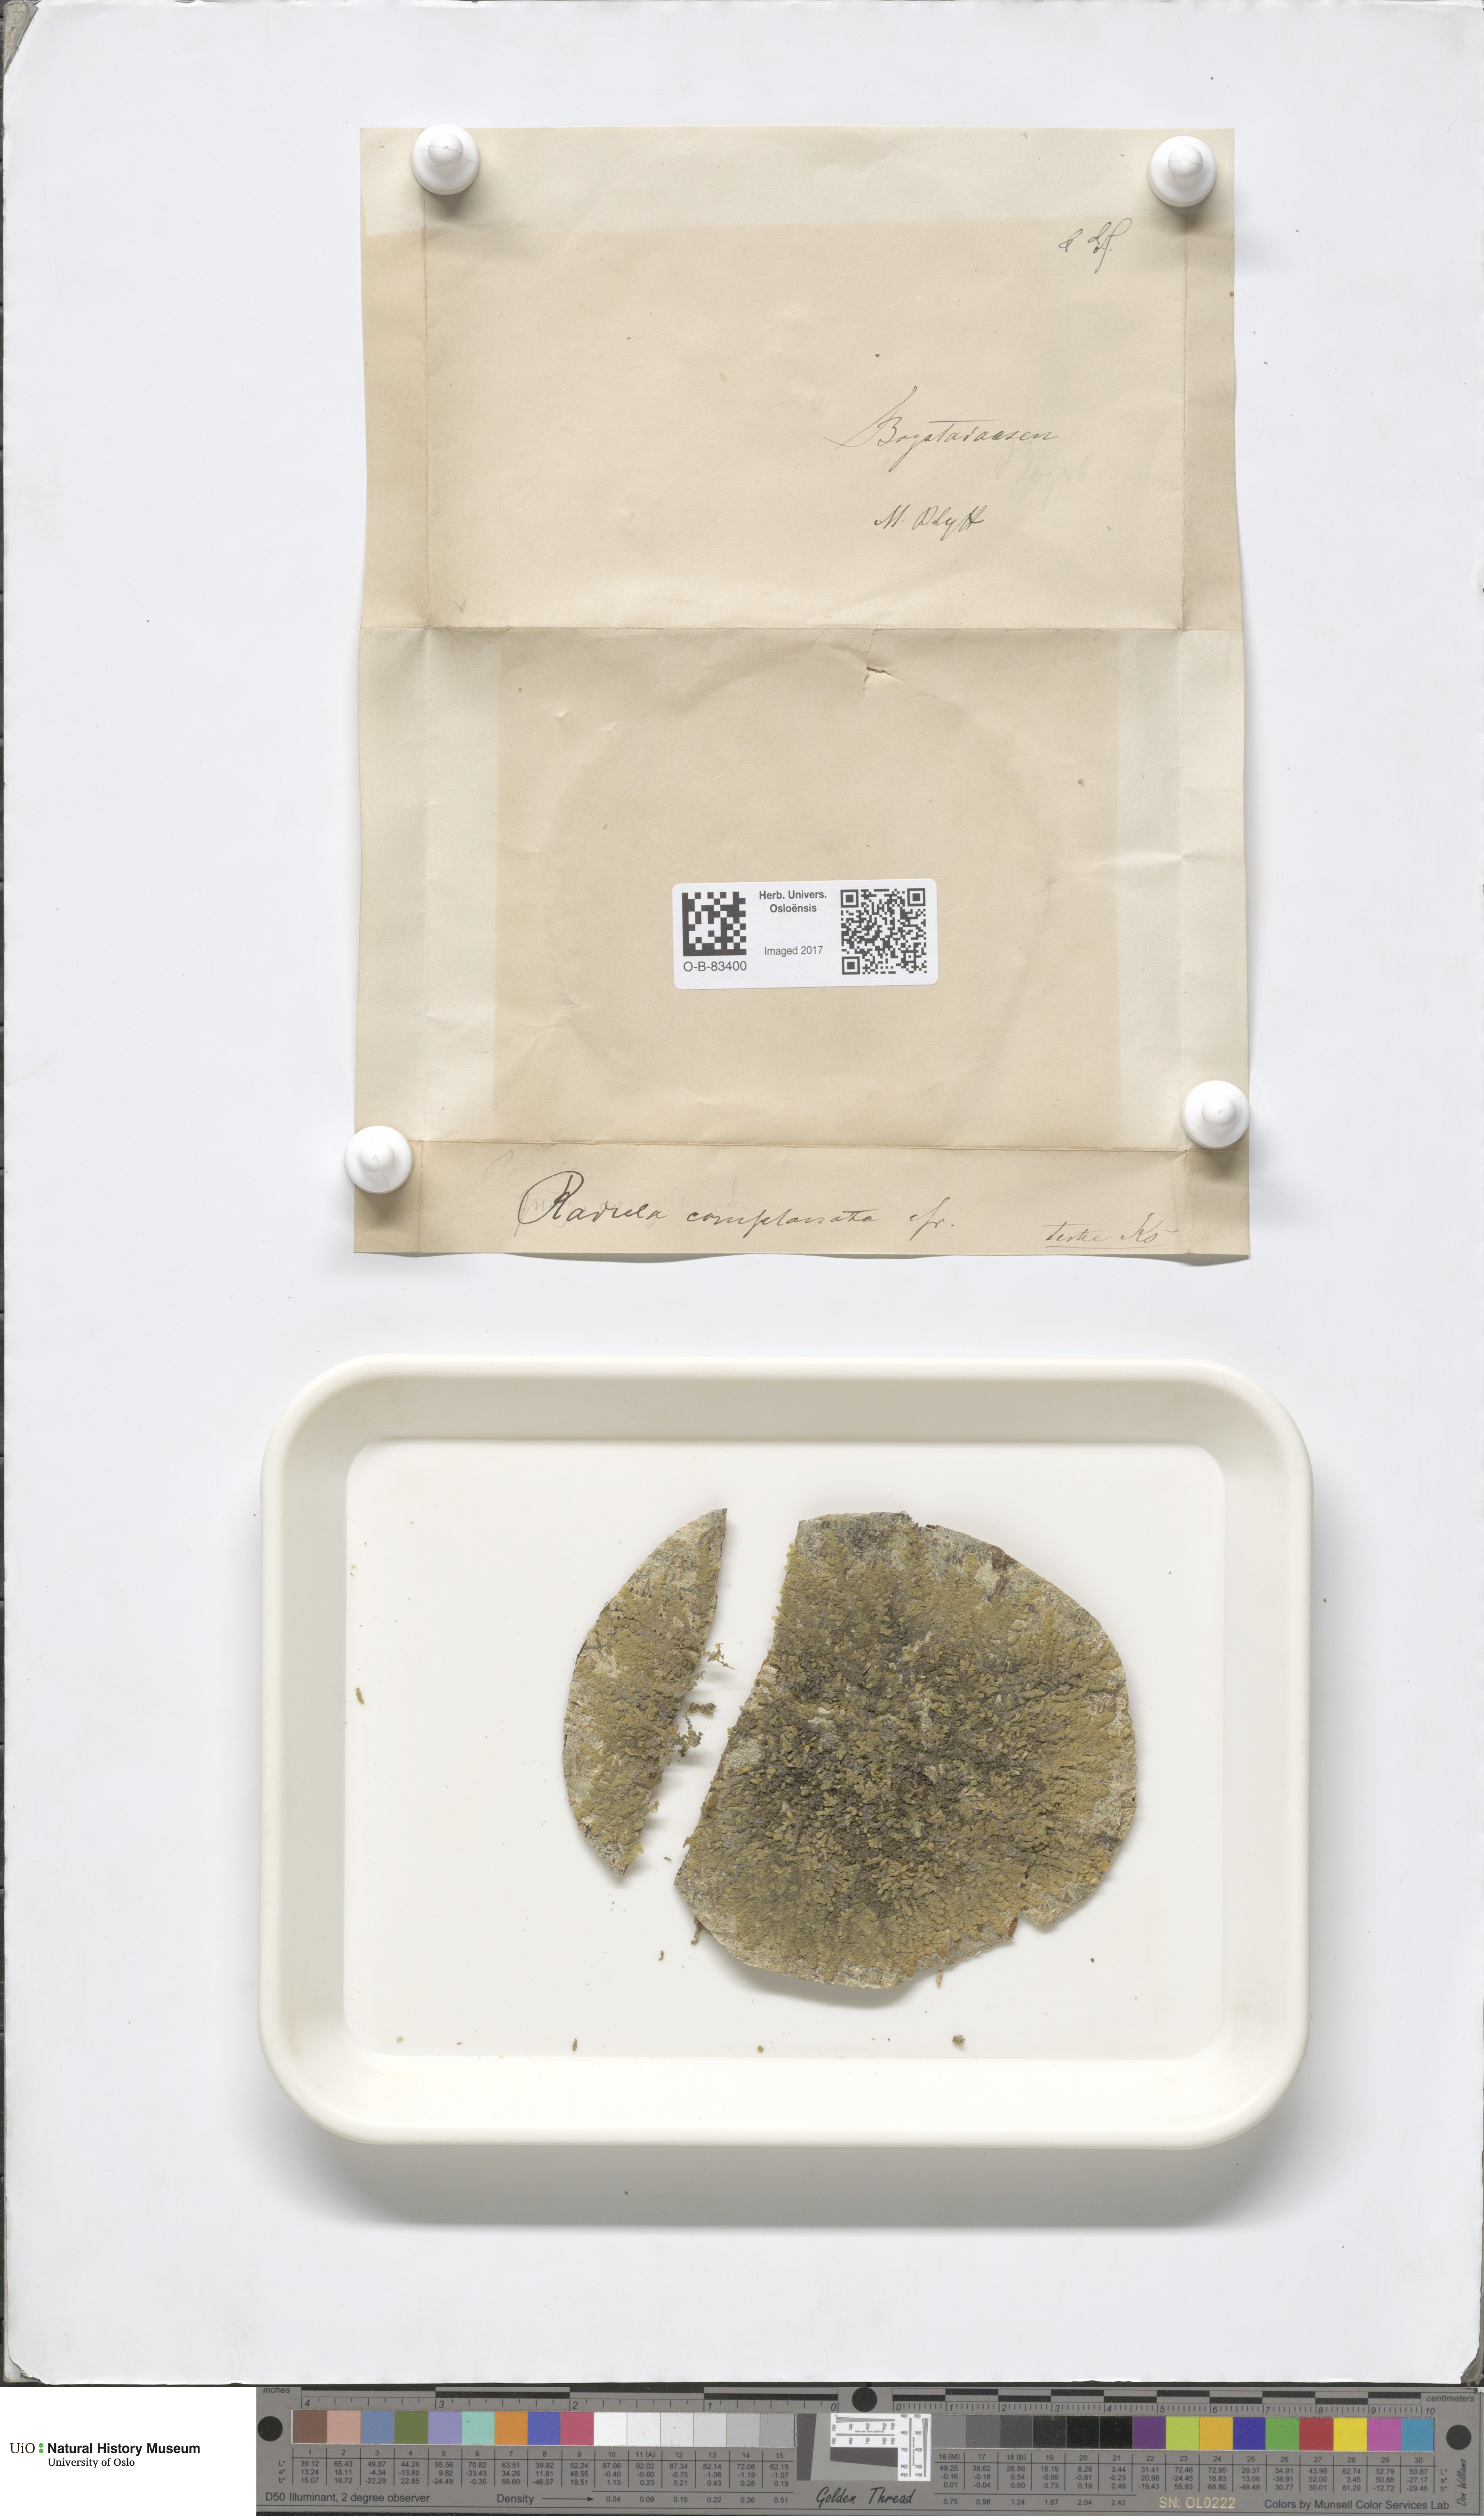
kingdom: Plantae
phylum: Marchantiophyta
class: Jungermanniopsida
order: Porellales
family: Radulaceae
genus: Radula
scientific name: Radula complanata
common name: Flat-leaved scalewort
